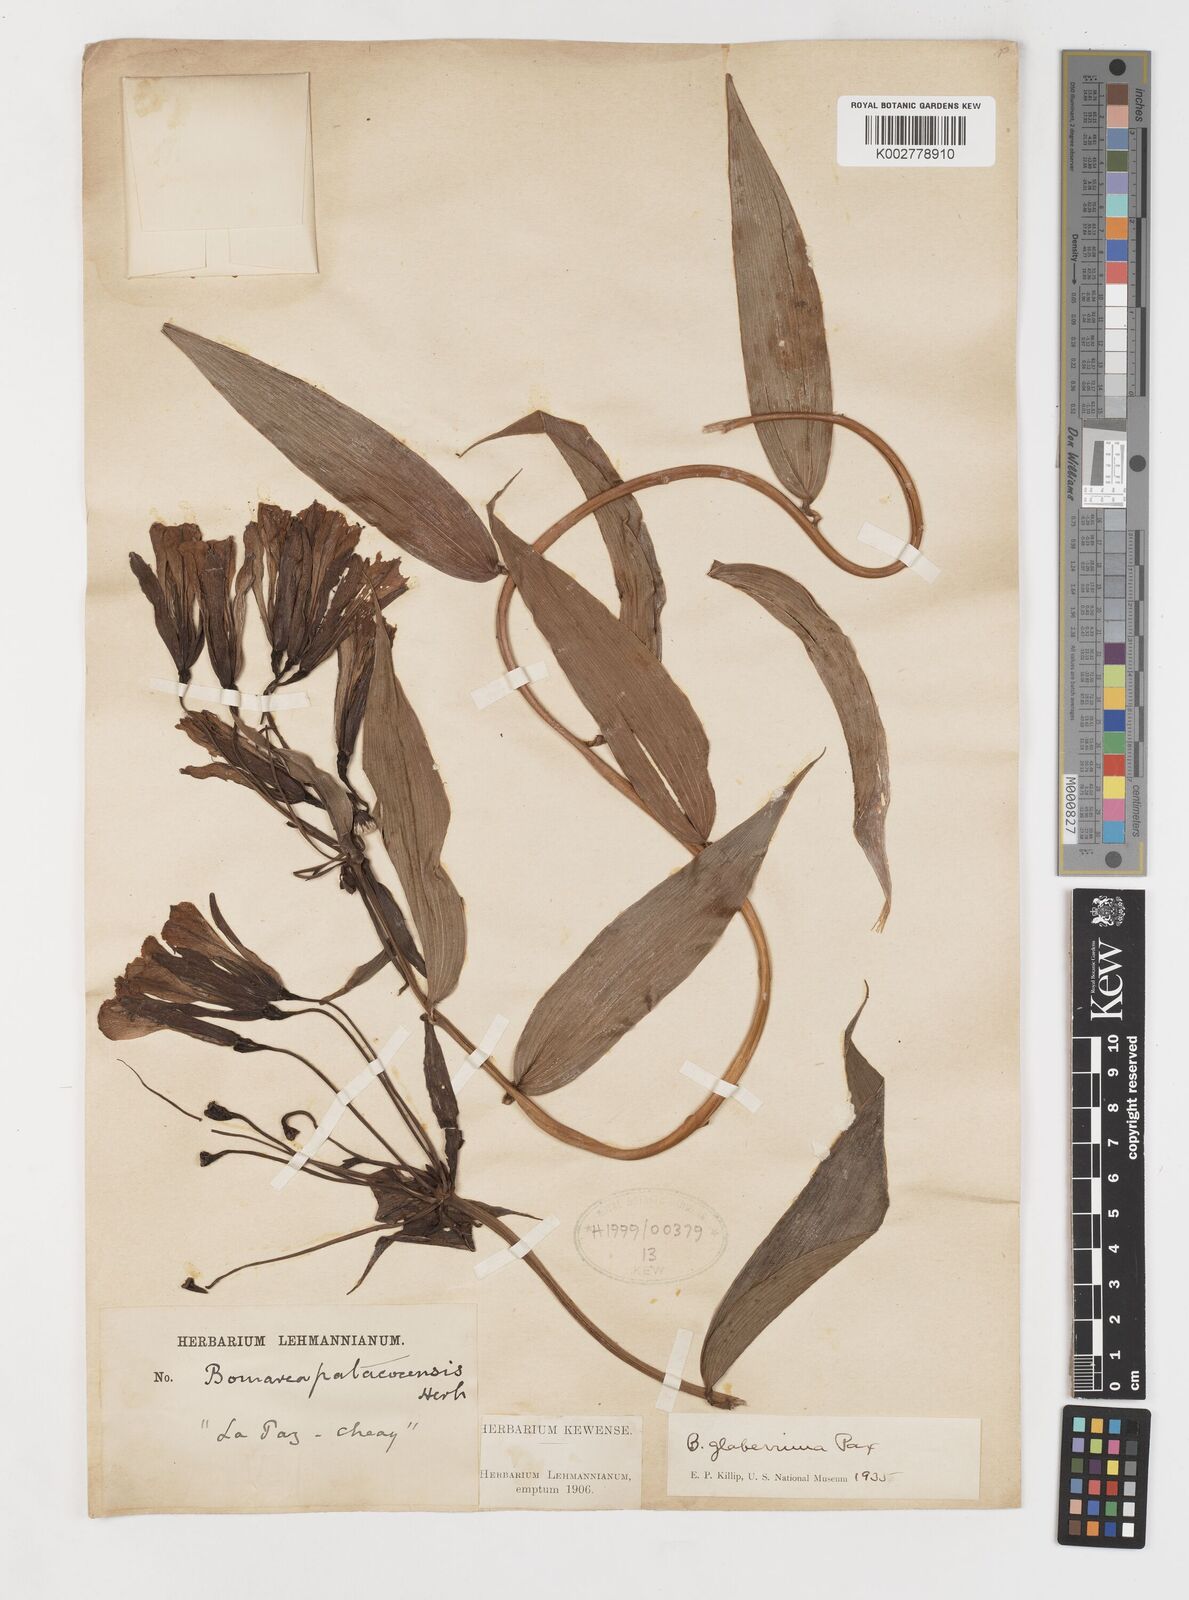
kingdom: Plantae
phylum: Tracheophyta
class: Liliopsida
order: Liliales
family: Alstroemeriaceae
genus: Bomarea
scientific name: Bomarea andreana
